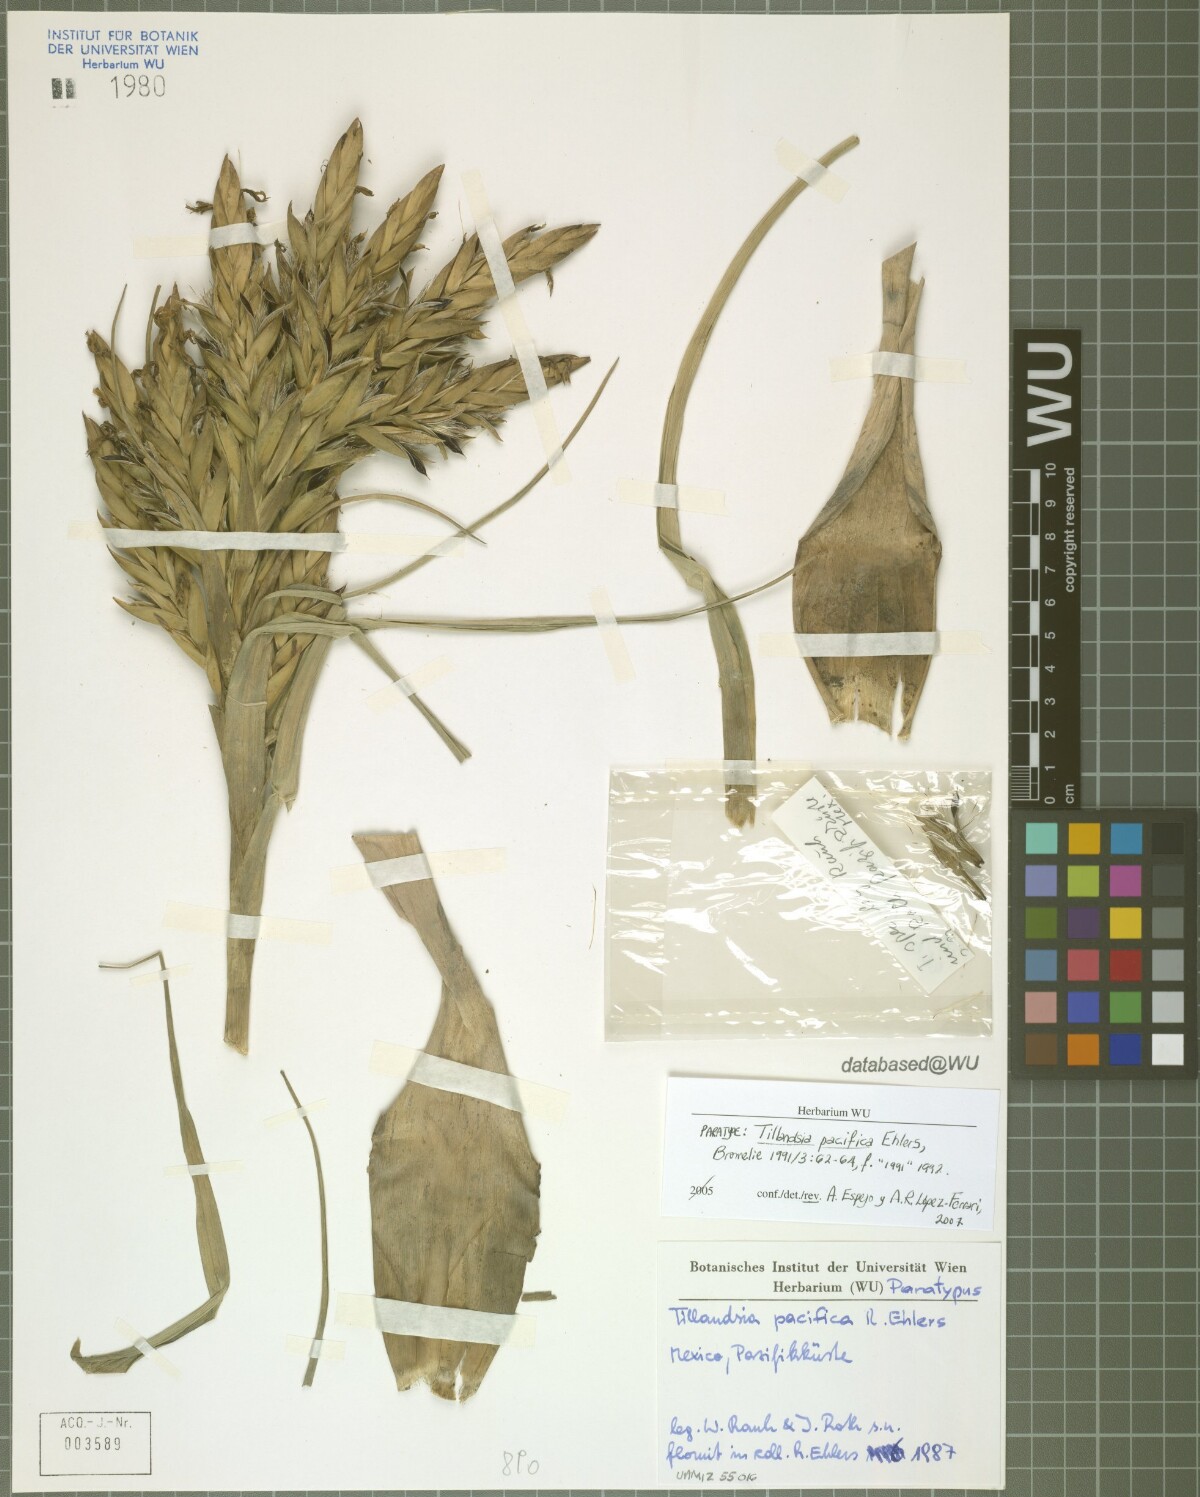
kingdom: Plantae
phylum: Tracheophyta
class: Liliopsida
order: Poales
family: Bromeliaceae
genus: Tillandsia
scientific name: Tillandsia pacifica
